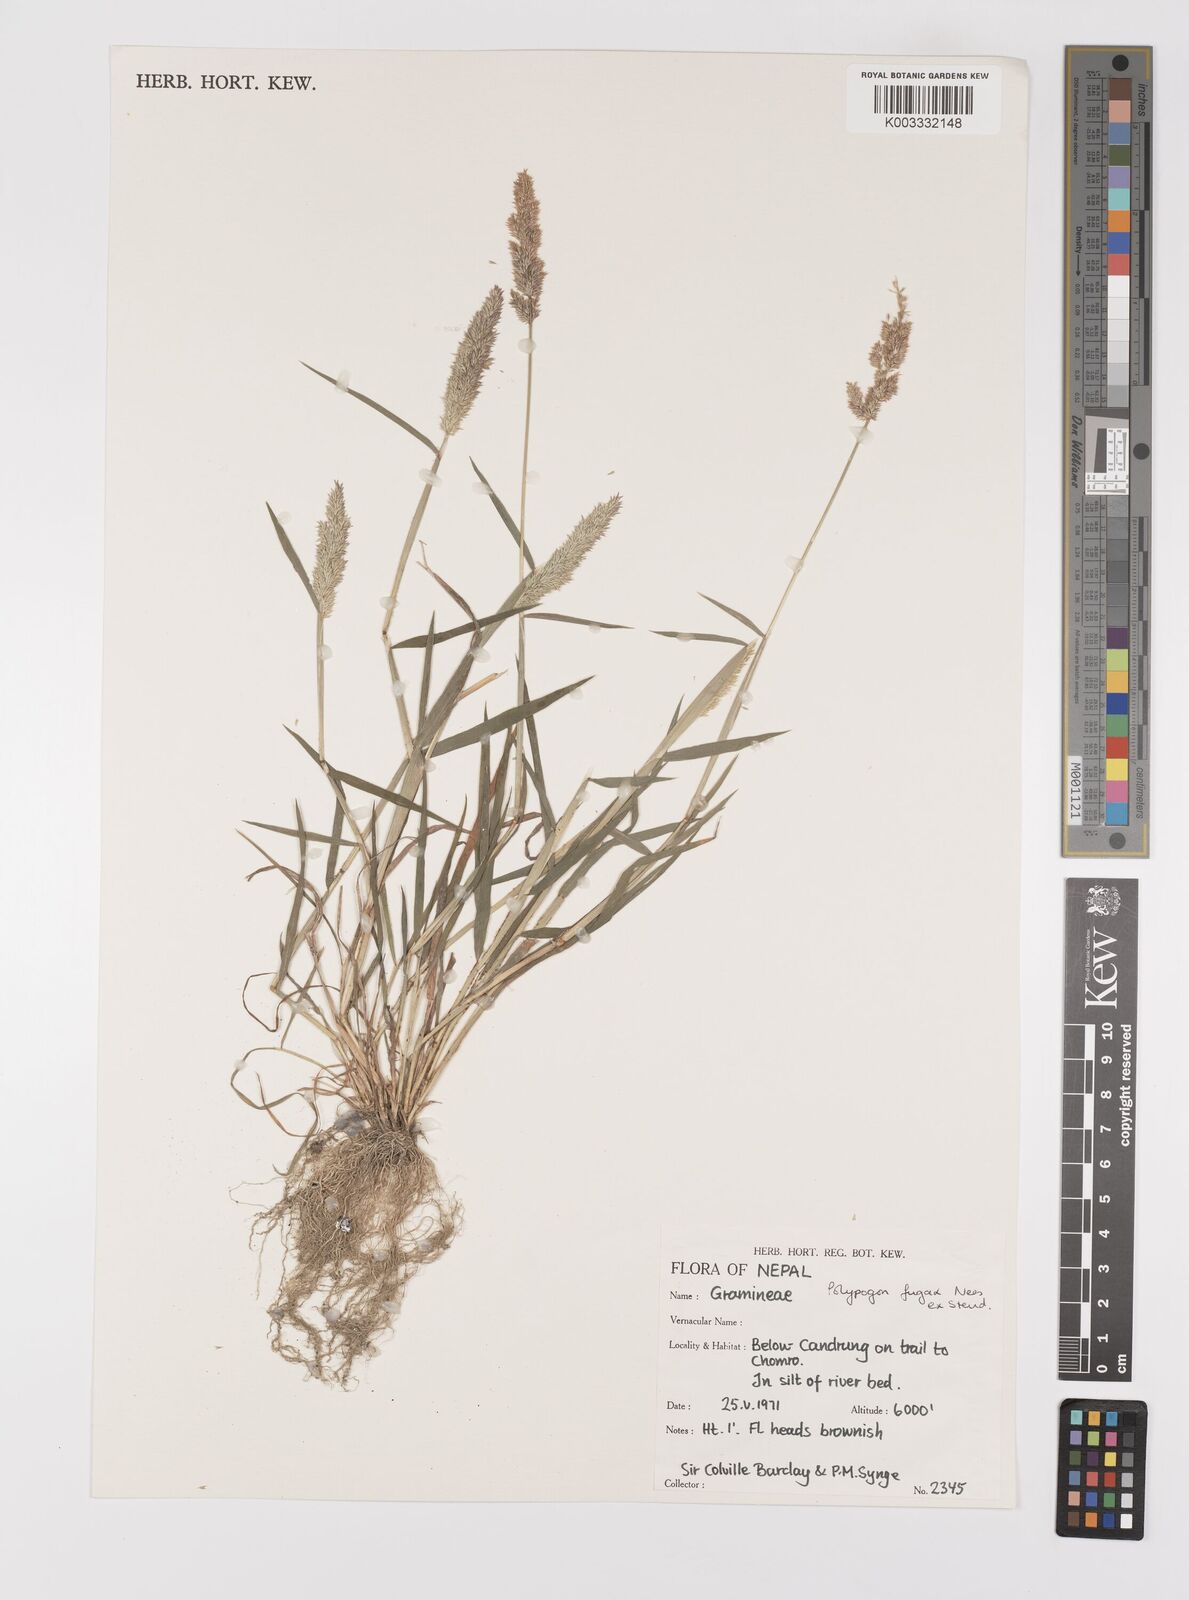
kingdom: Plantae
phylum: Tracheophyta
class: Liliopsida
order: Poales
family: Poaceae
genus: Polypogon
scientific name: Polypogon fugax
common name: Asia minor bluegrass
